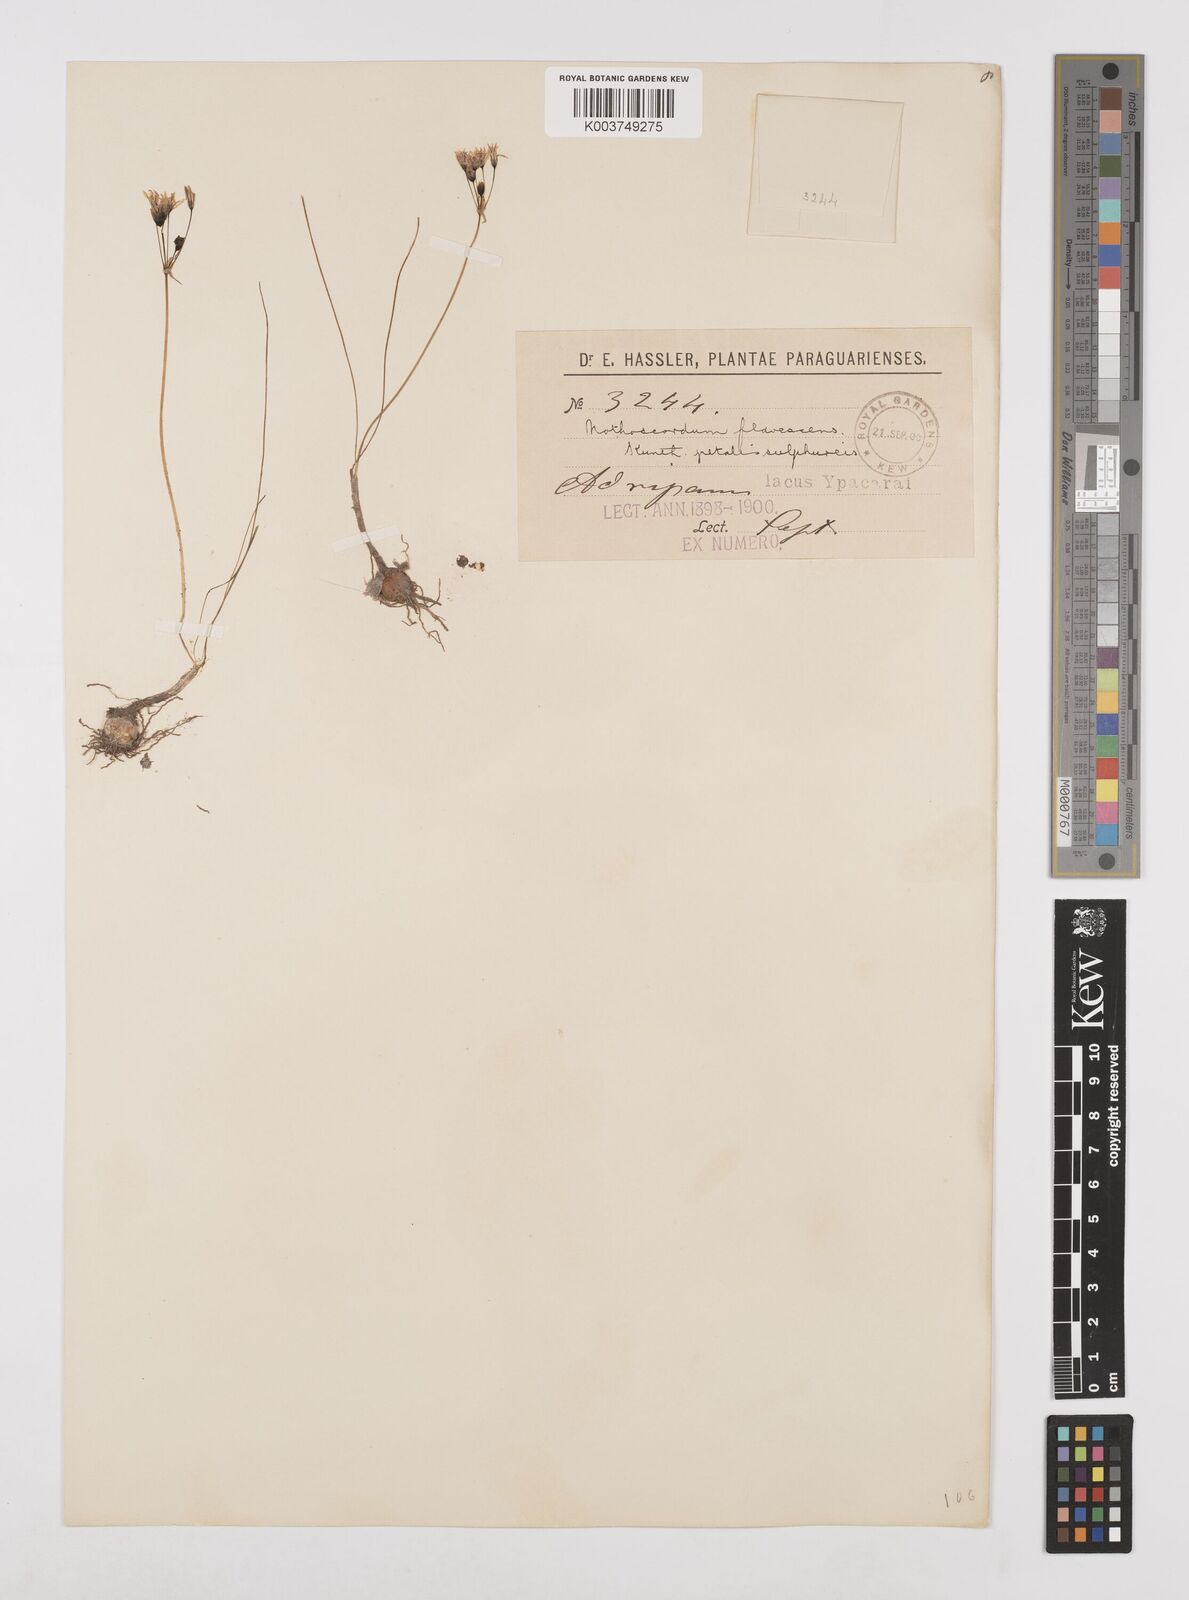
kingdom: Plantae
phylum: Tracheophyta
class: Liliopsida
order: Asparagales
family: Amaryllidaceae
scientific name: Amaryllidaceae
